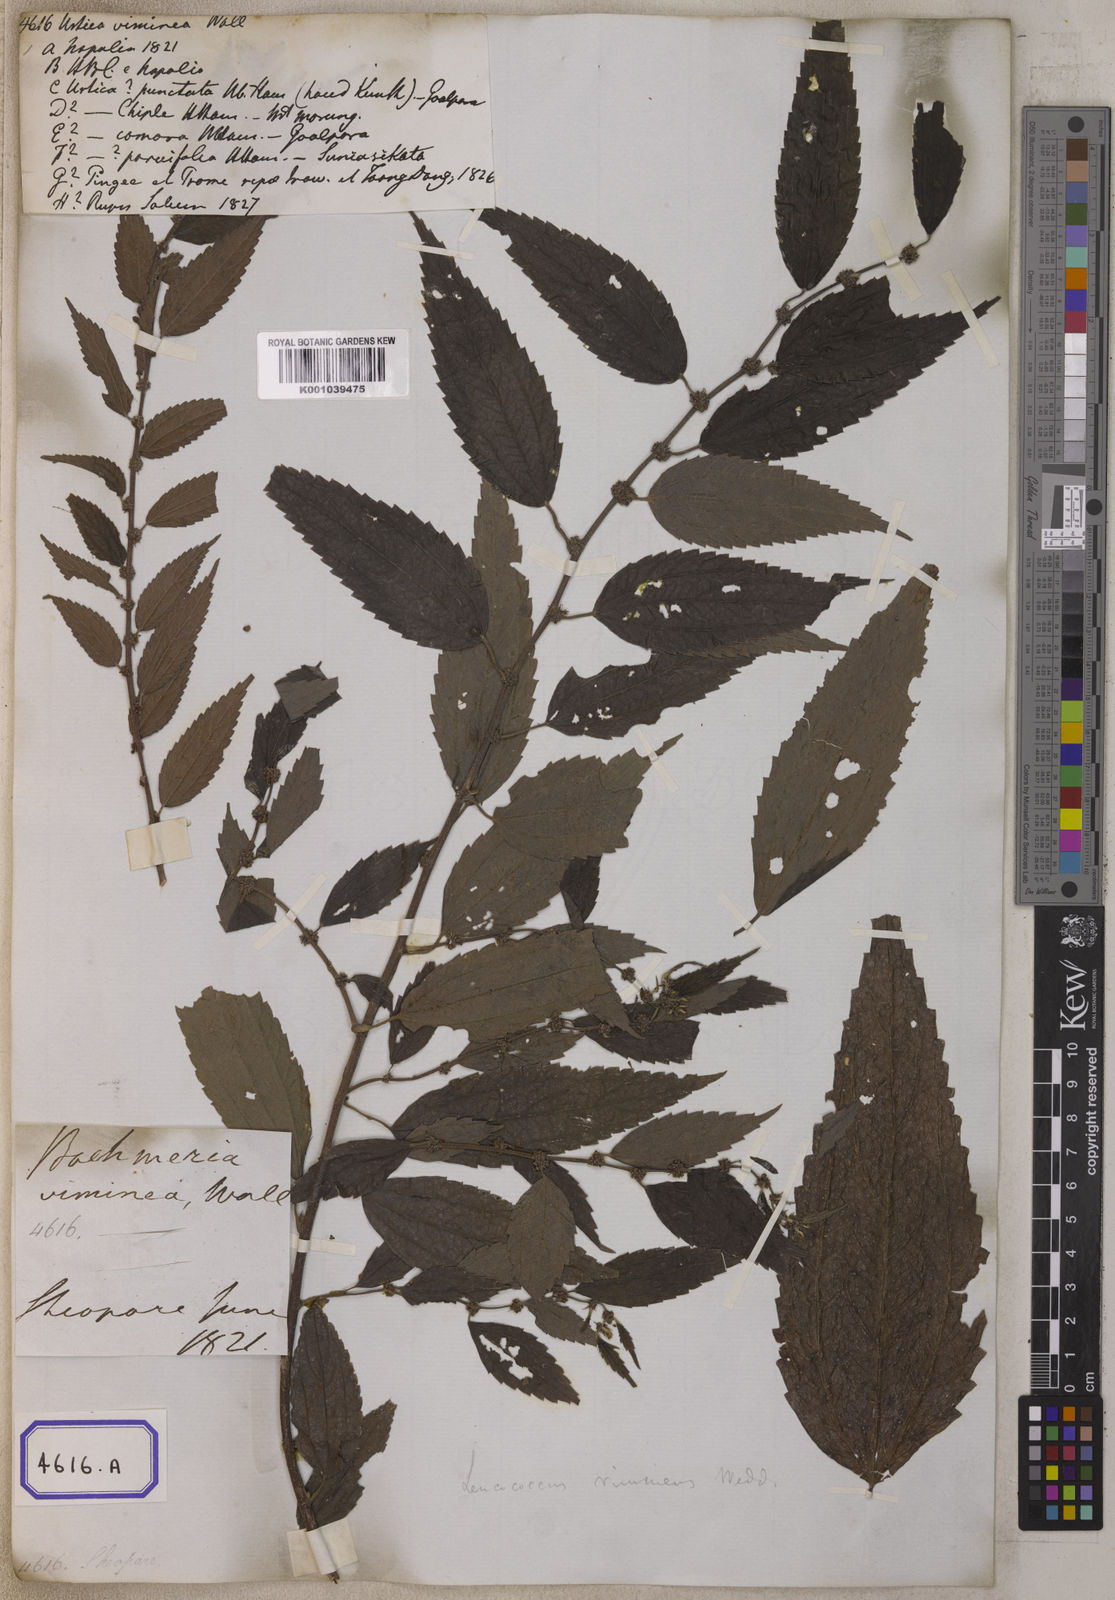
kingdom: Plantae
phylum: Tracheophyta
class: Magnoliopsida
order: Rosales
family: Urticaceae
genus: Pouzolzia
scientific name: Pouzolzia sanguinea
